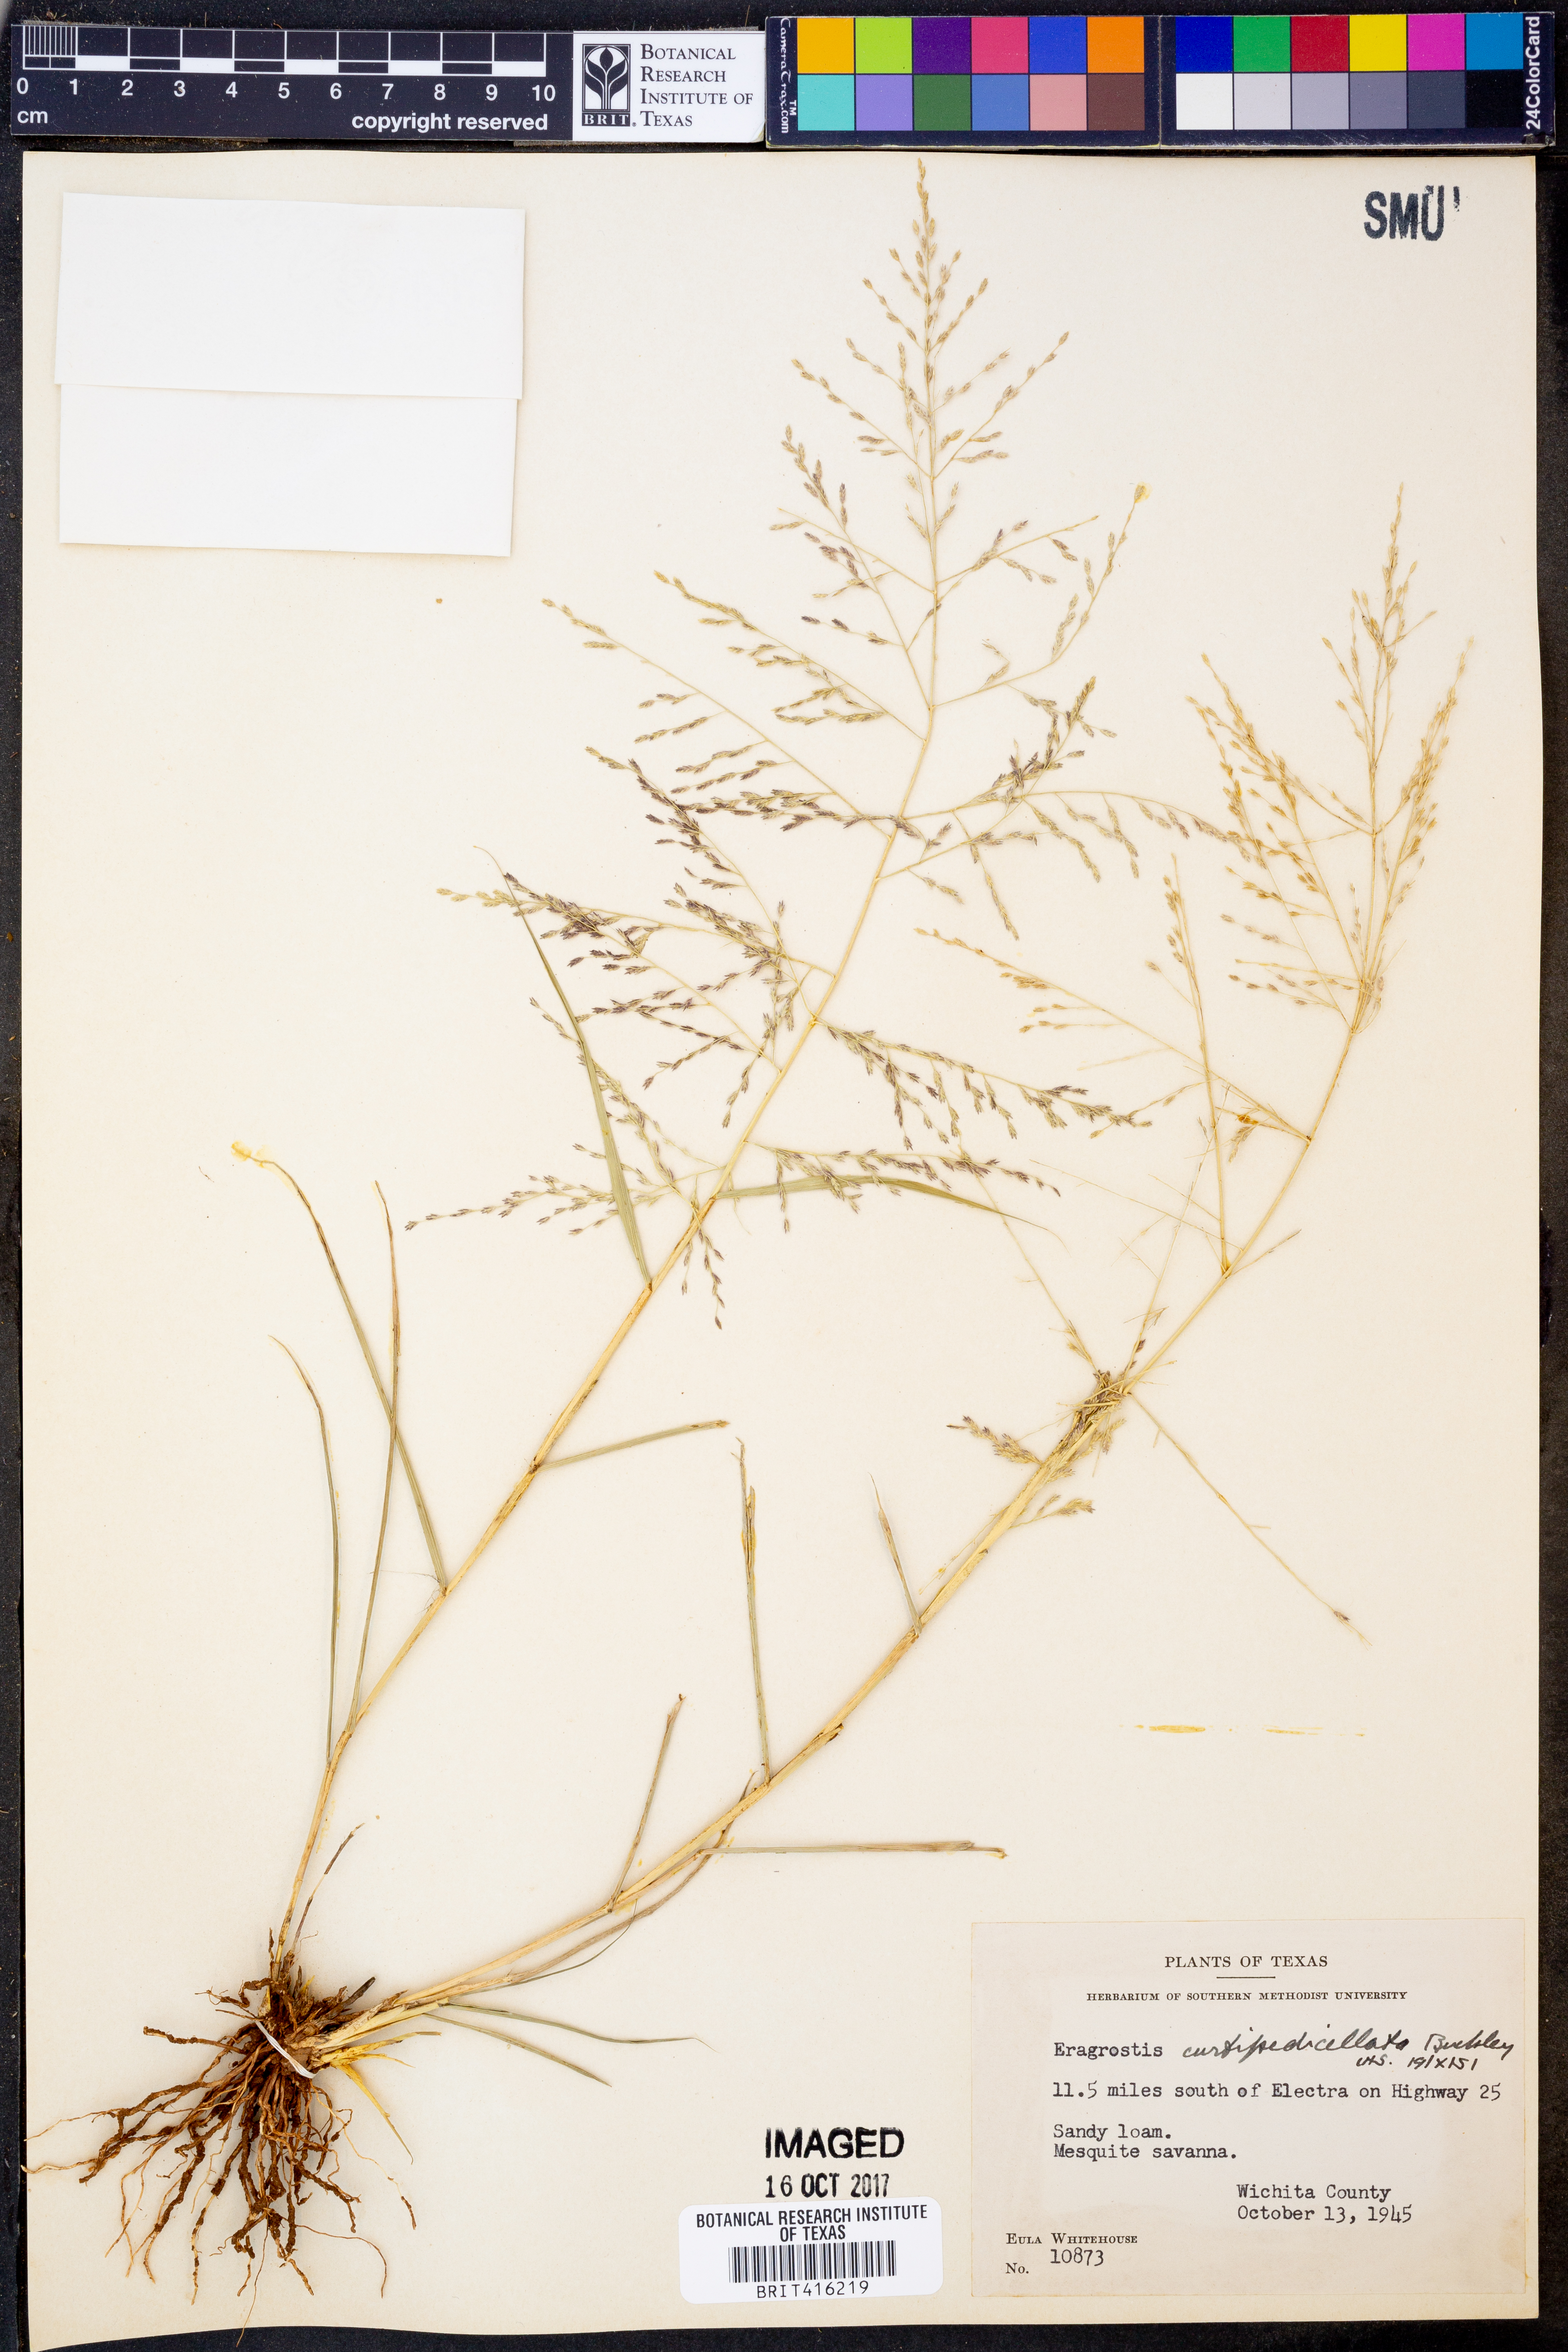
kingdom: Plantae
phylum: Tracheophyta
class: Liliopsida
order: Poales
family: Poaceae
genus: Eragrostis
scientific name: Eragrostis curtipedicellata
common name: Gummy love grass
